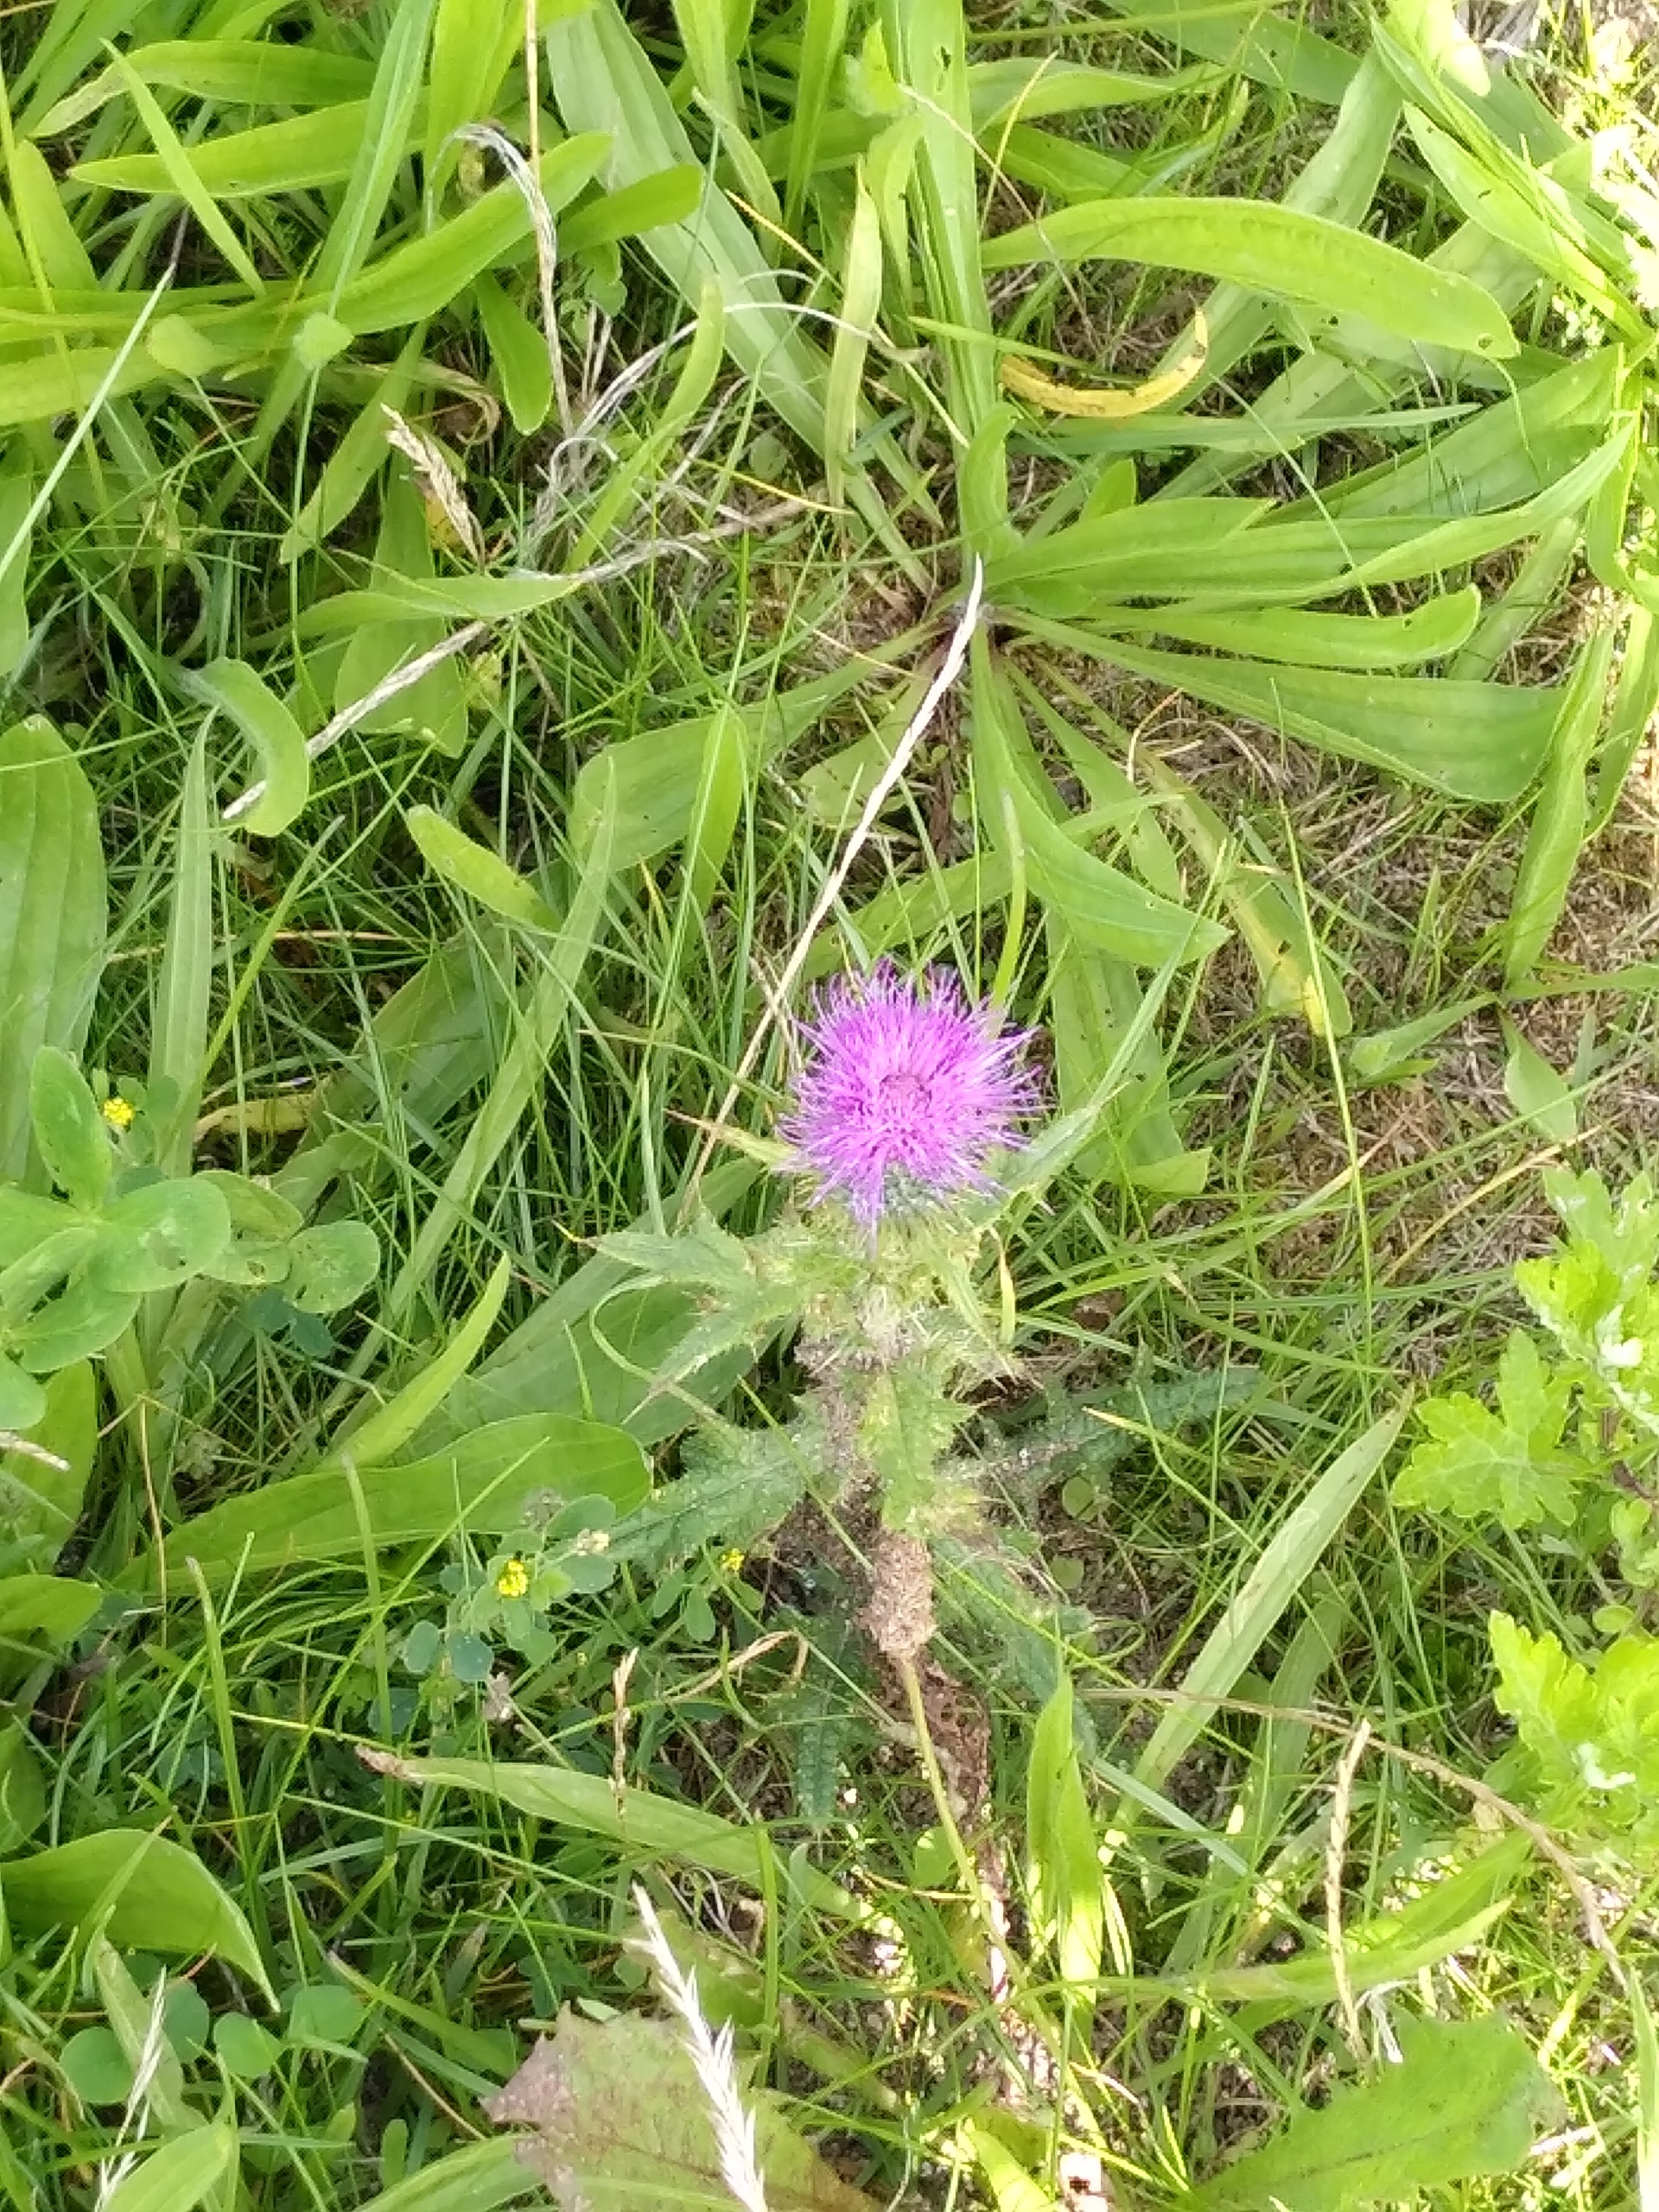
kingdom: Plantae
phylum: Tracheophyta
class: Magnoliopsida
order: Asterales
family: Asteraceae
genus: Cirsium
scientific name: Cirsium vulgare
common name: Horse-tidsel
